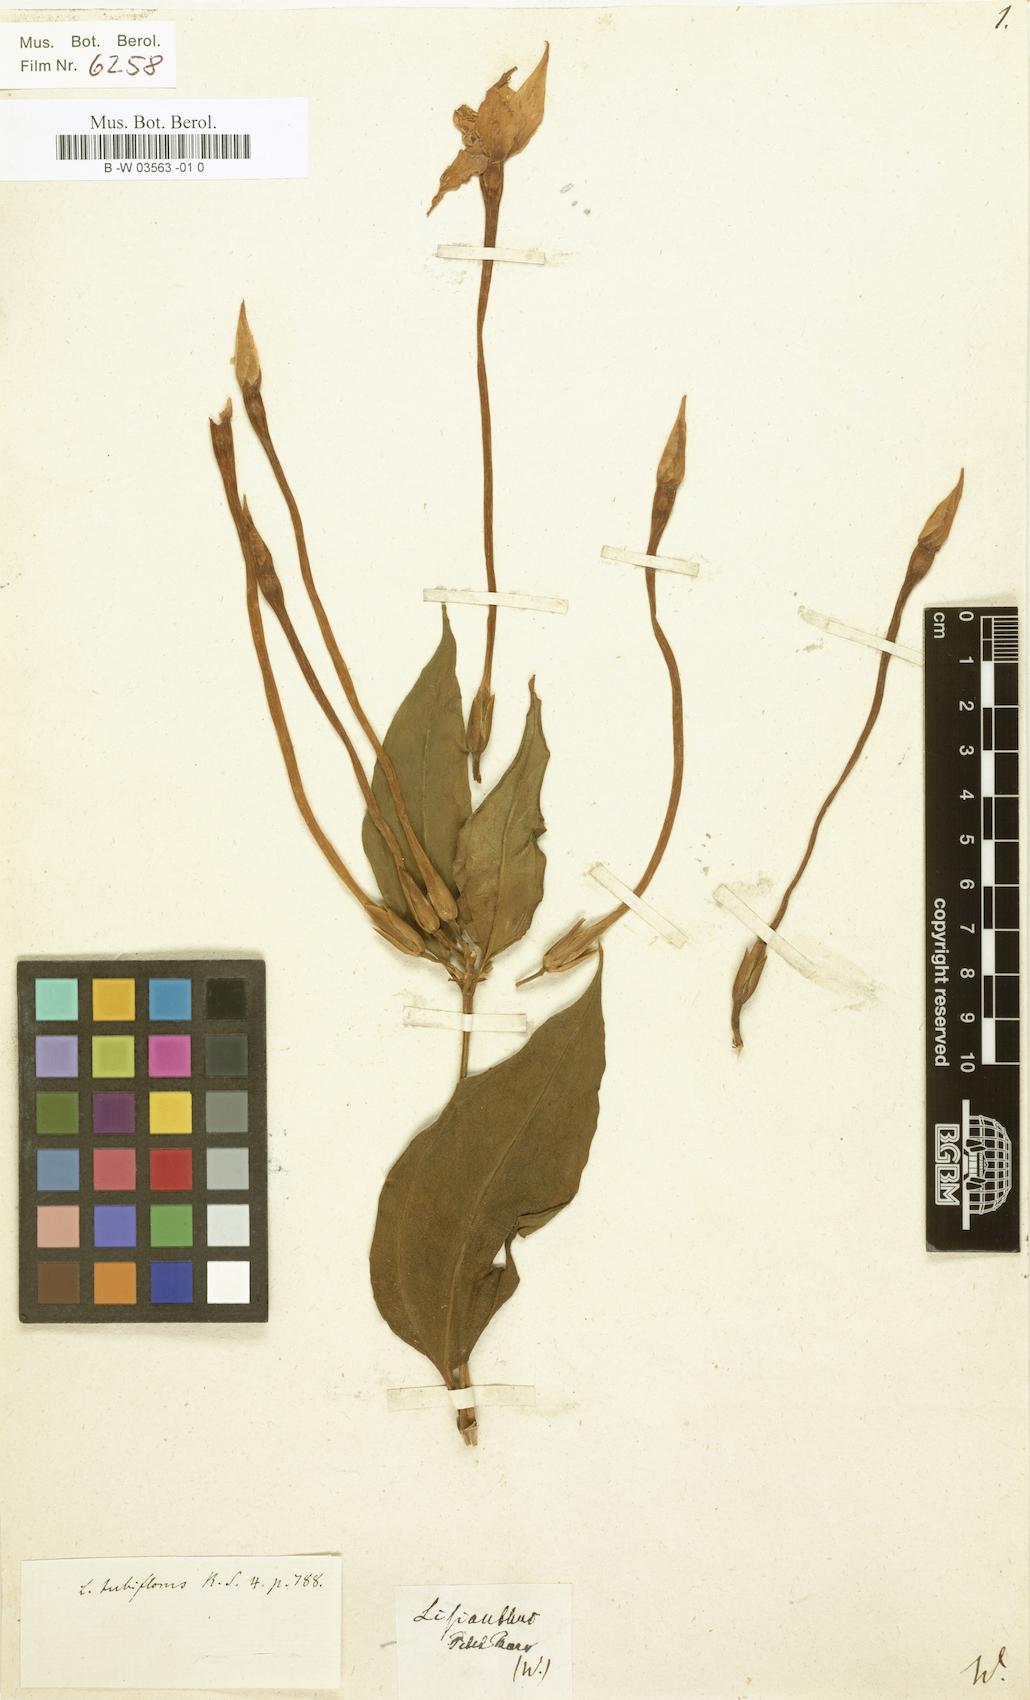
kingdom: Plantae
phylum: Tracheophyta
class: Magnoliopsida
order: Gentianales
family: Gentianaceae
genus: Tachiadenus
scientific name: Tachiadenus tubiflorus
